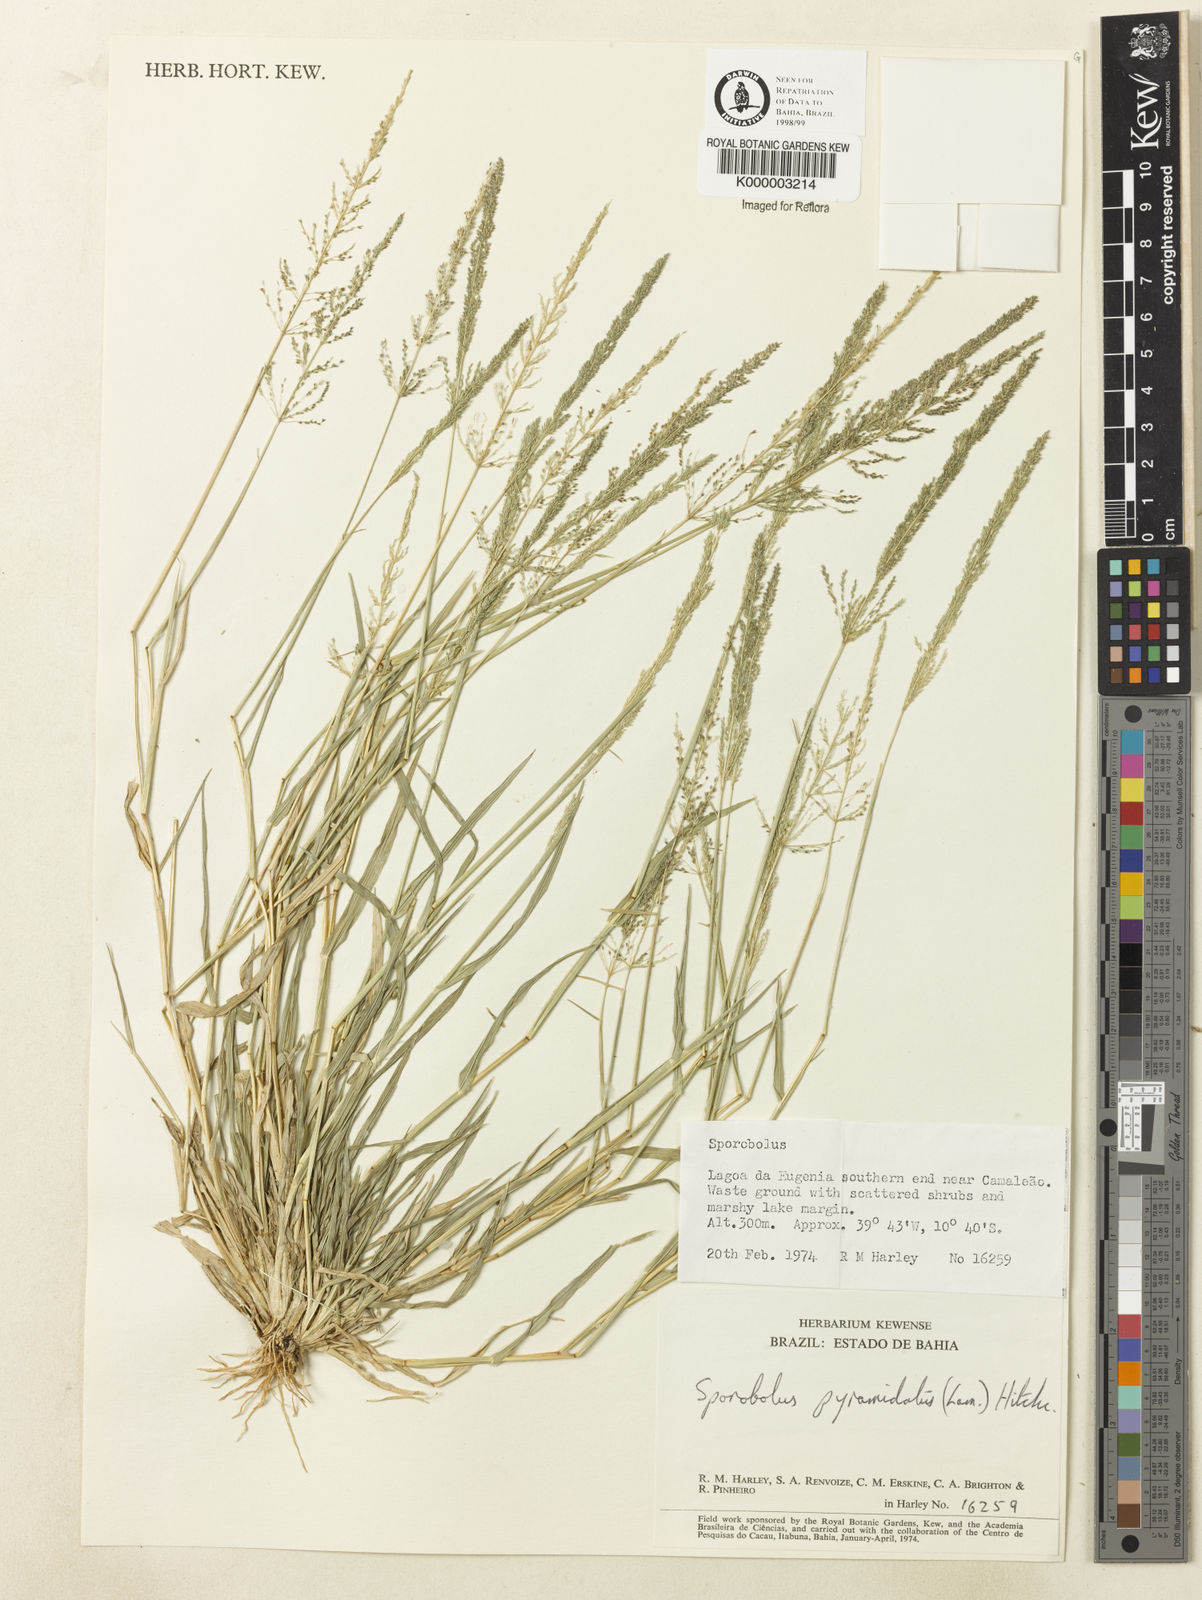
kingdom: Plantae
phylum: Tracheophyta
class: Liliopsida
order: Poales
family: Poaceae
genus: Sporobolus
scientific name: Sporobolus pyramidatus
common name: Whorled dropseed
